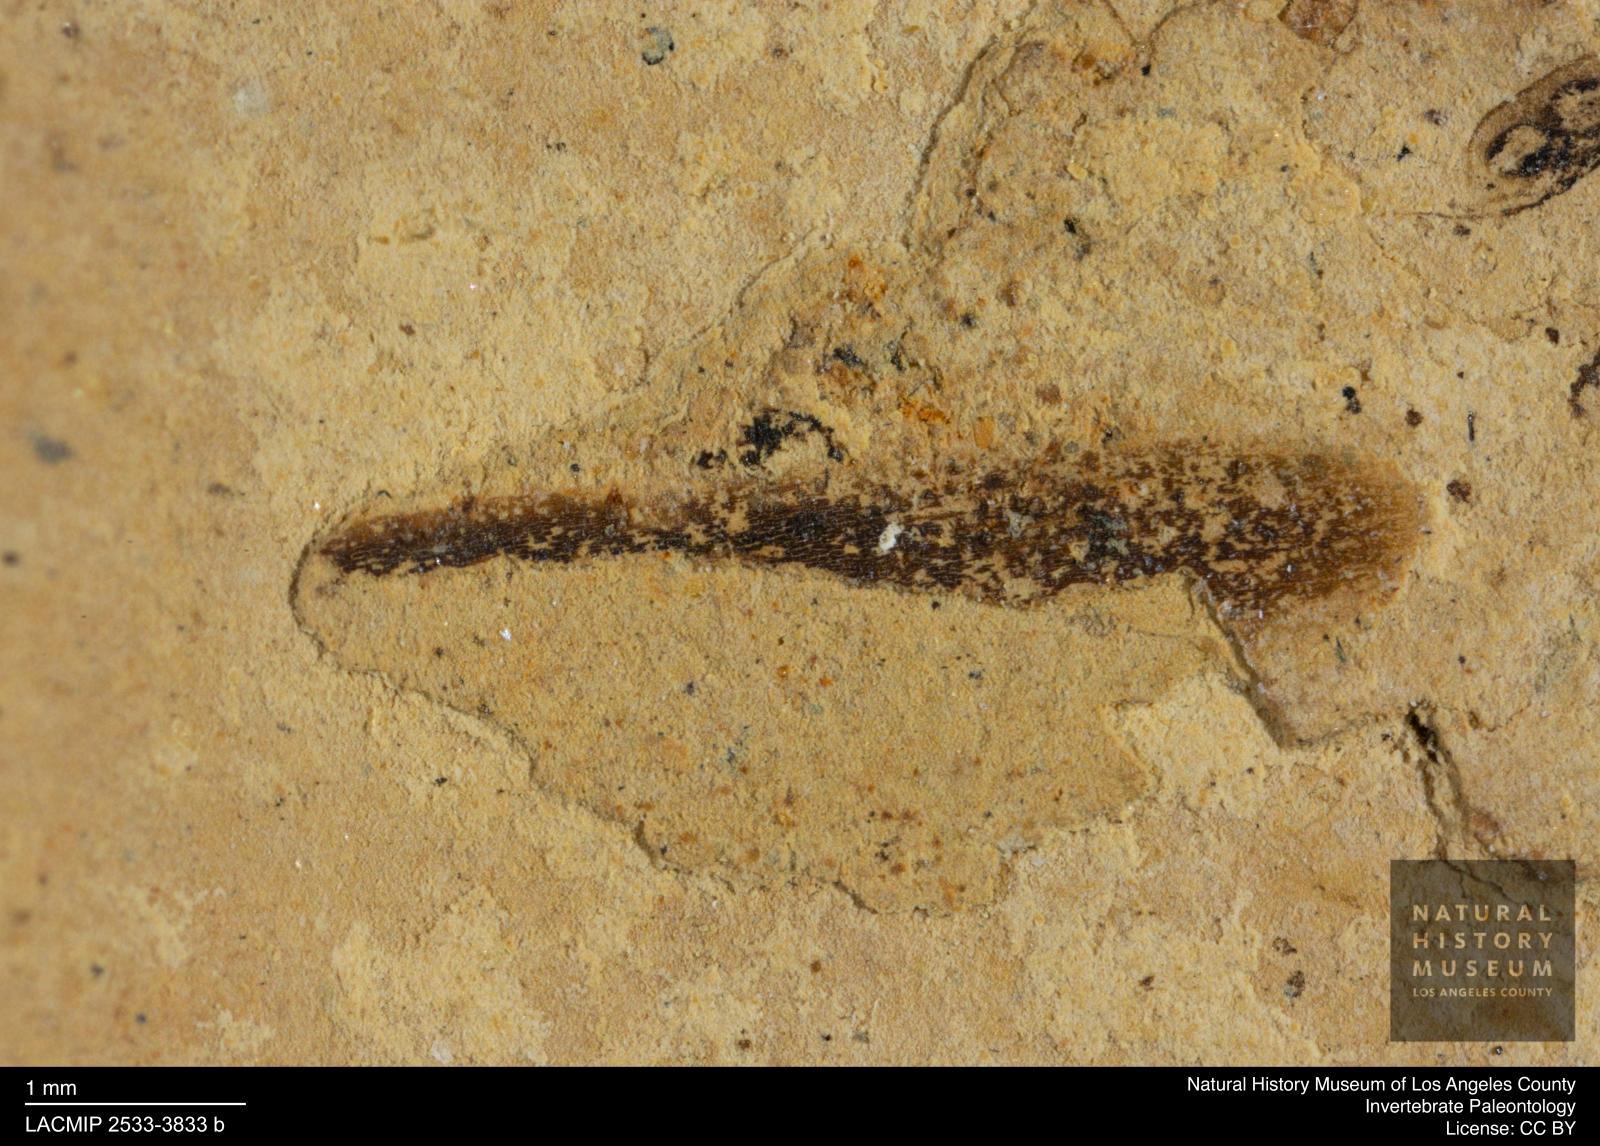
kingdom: Animalia
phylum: Arthropoda
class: Insecta
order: Thysanoptera
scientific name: Thysanoptera
